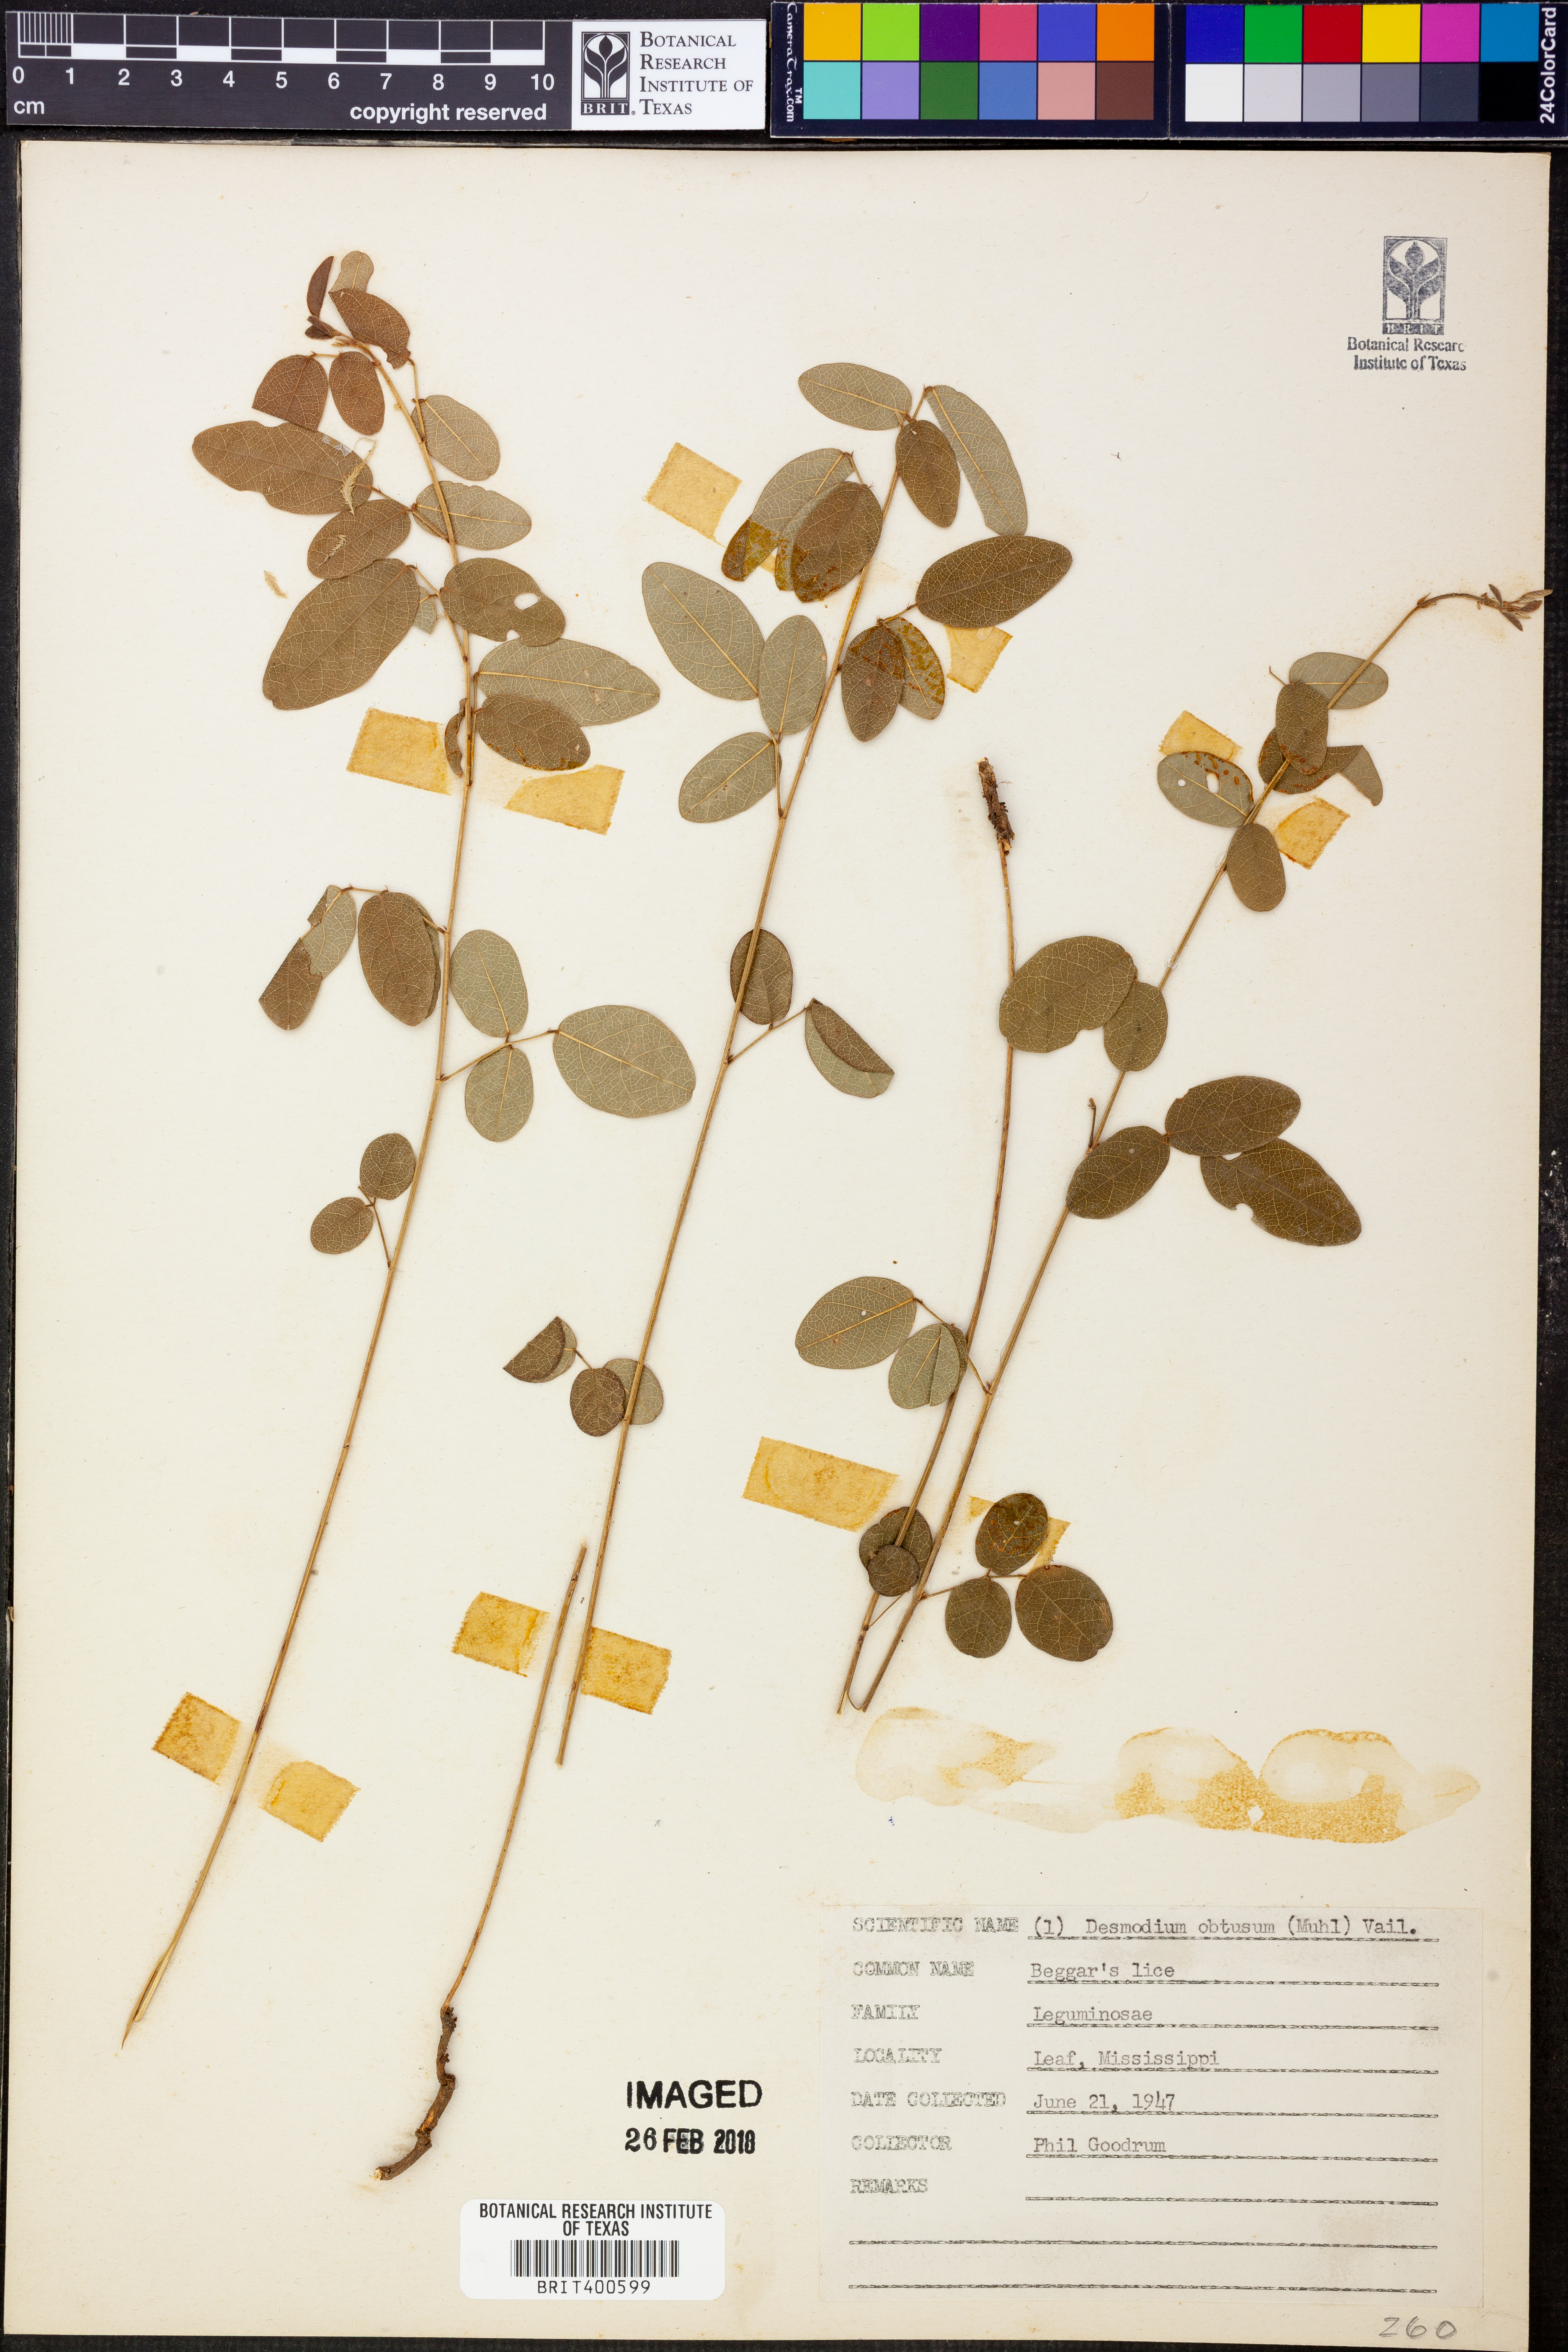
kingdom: Plantae
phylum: Tracheophyta
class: Magnoliopsida
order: Fabales
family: Fabaceae
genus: Desmodium
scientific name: Desmodium obtusum
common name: Stiff tick trefoil
